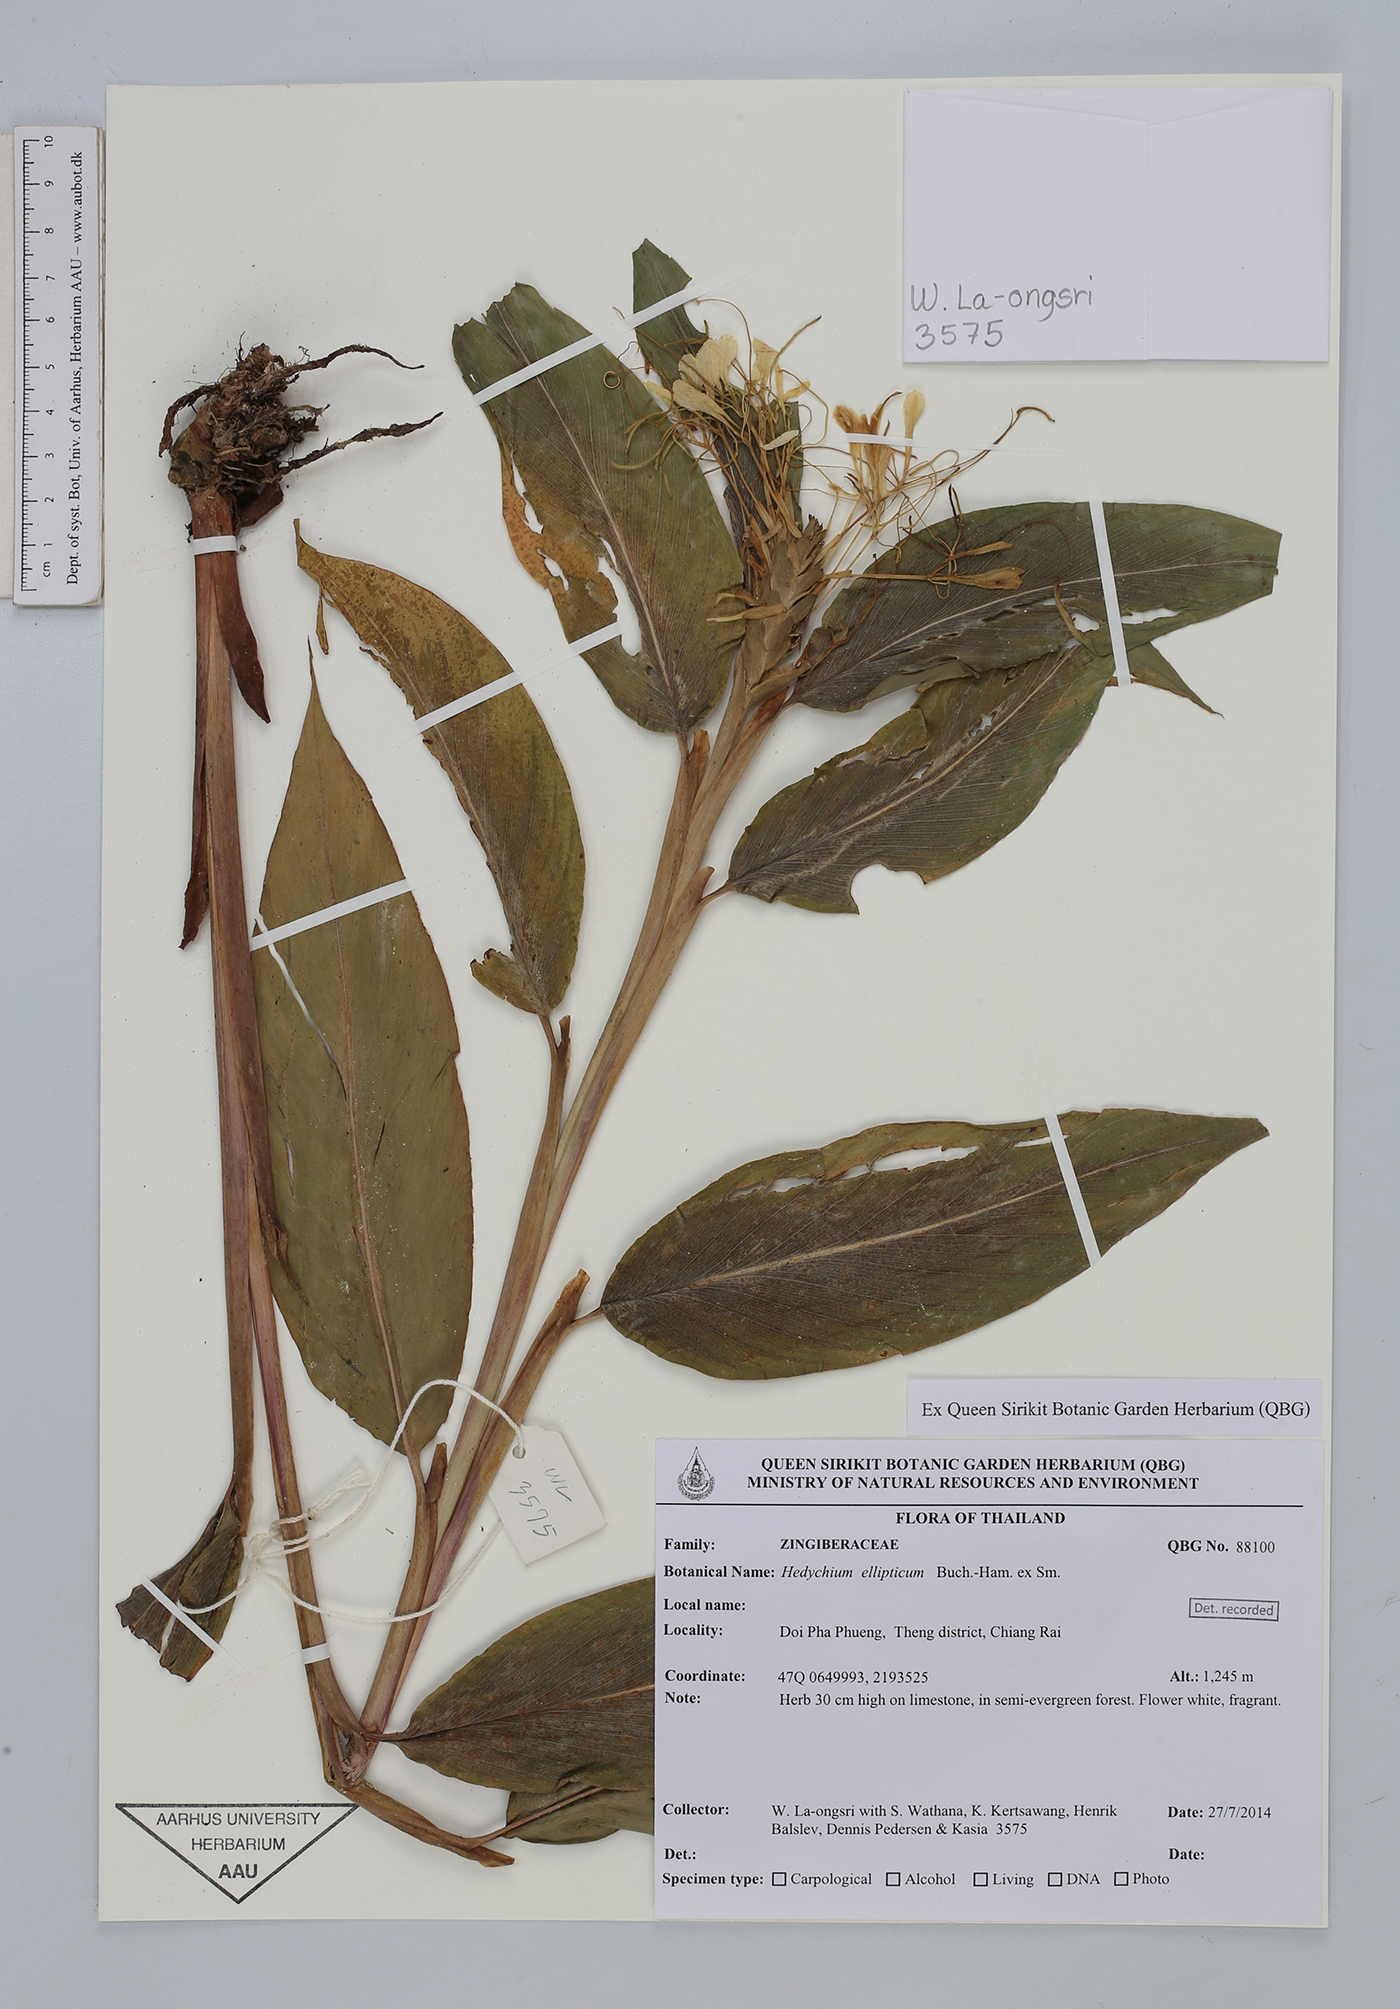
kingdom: Plantae
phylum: Tracheophyta
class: Liliopsida
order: Zingiberales
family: Zingiberaceae
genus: Hedychium
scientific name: Hedychium ellipticum
